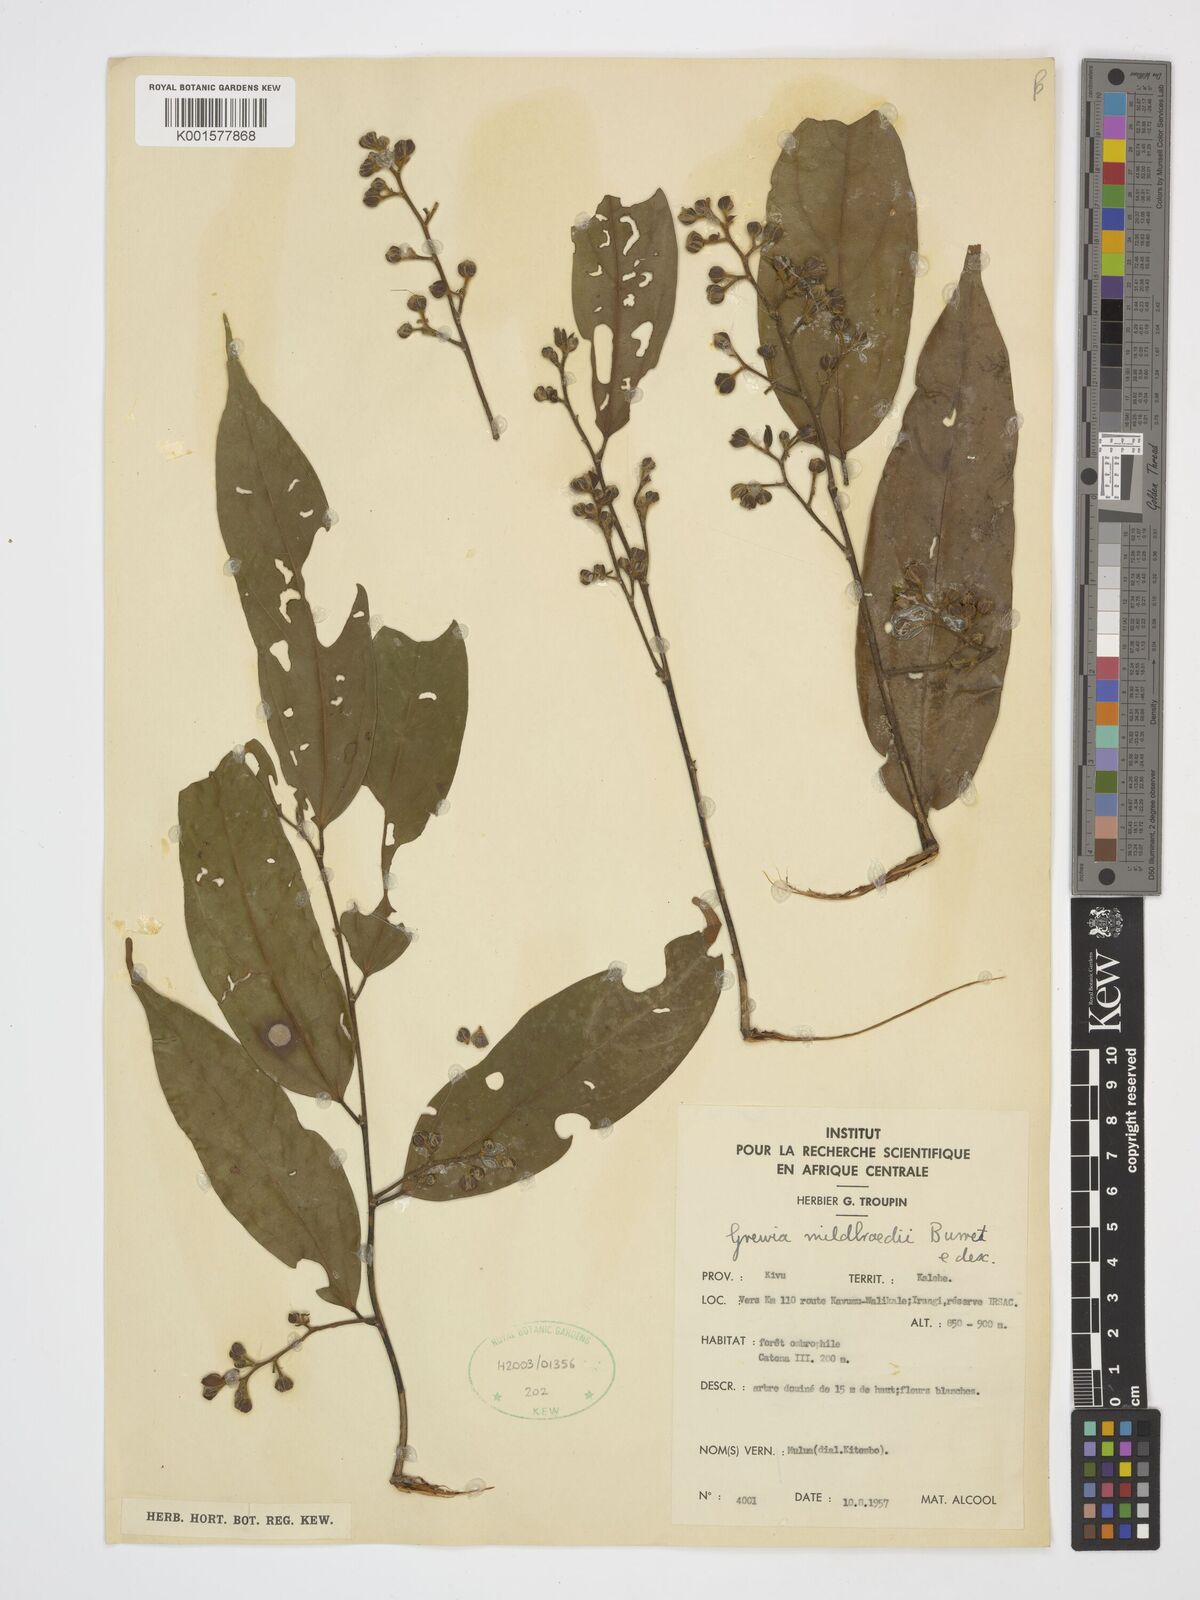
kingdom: Plantae
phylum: Tracheophyta
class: Magnoliopsida
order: Malvales
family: Malvaceae
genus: Microcos
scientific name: Microcos mildbraedii
